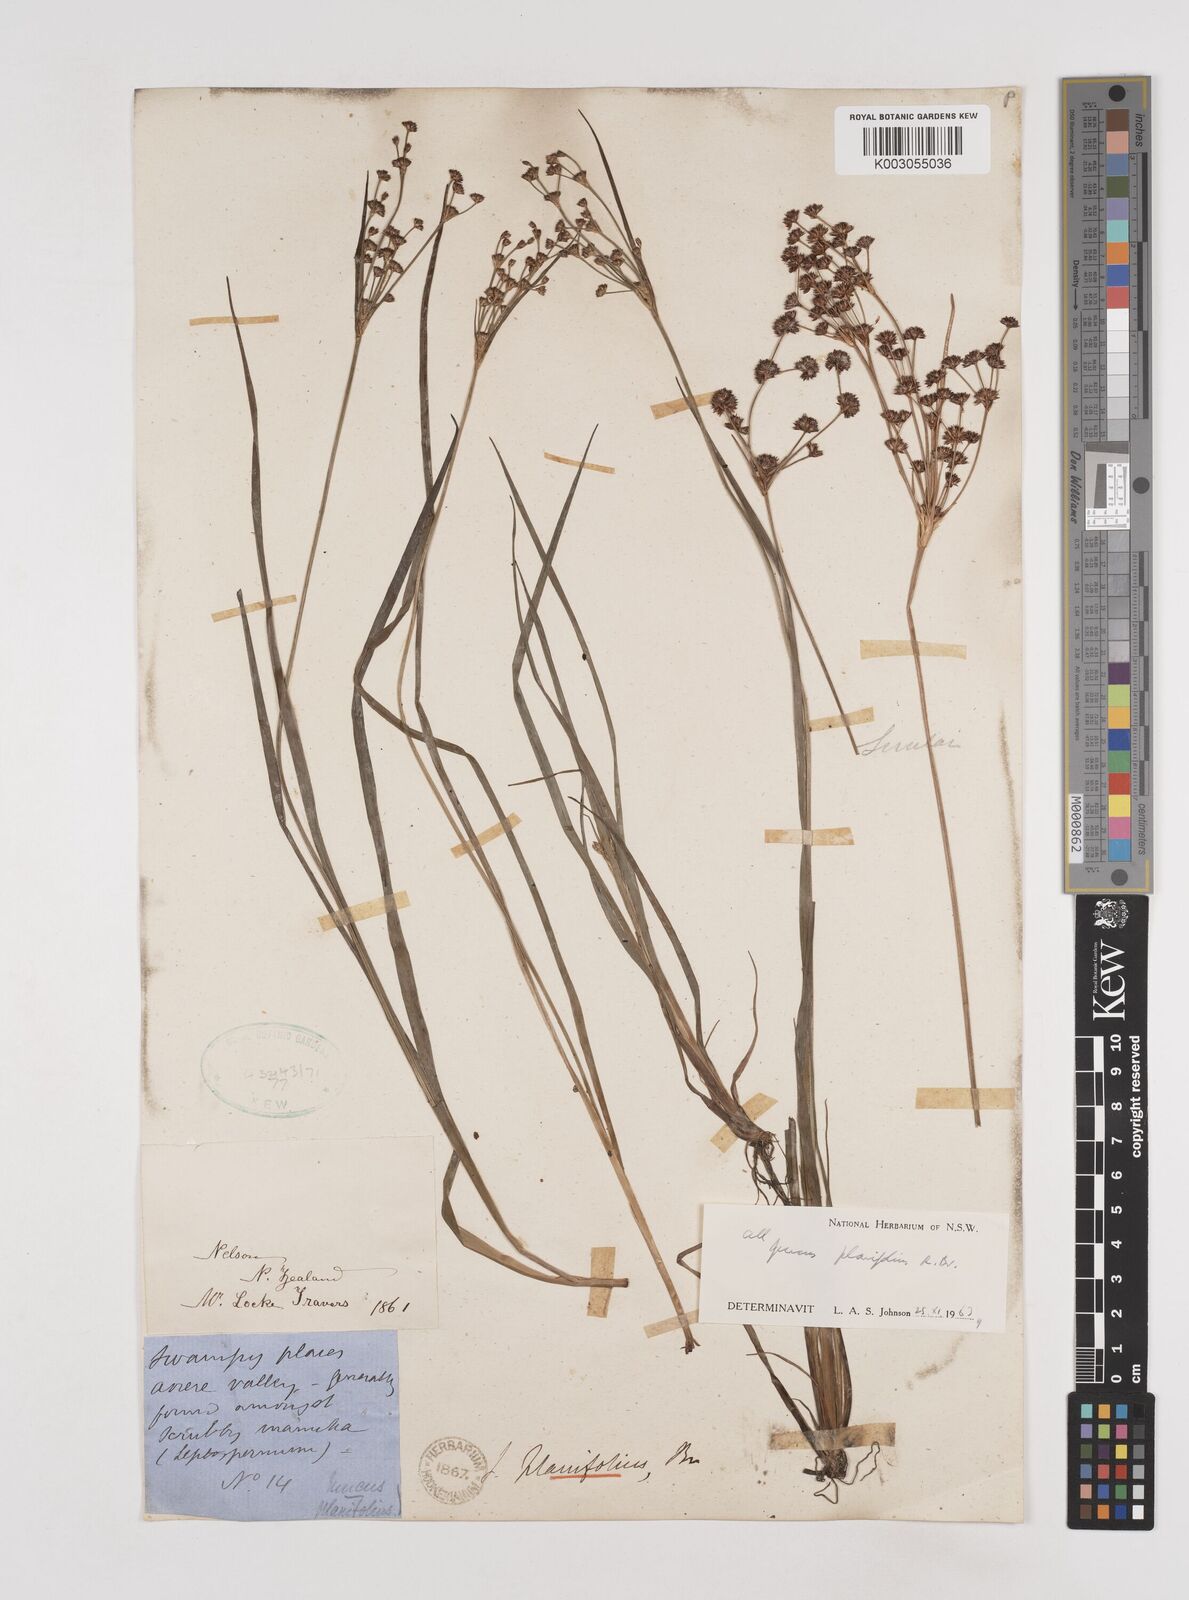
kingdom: Plantae
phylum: Tracheophyta
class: Liliopsida
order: Poales
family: Juncaceae
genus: Juncus
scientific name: Juncus planifolius
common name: Broadleaf rush
